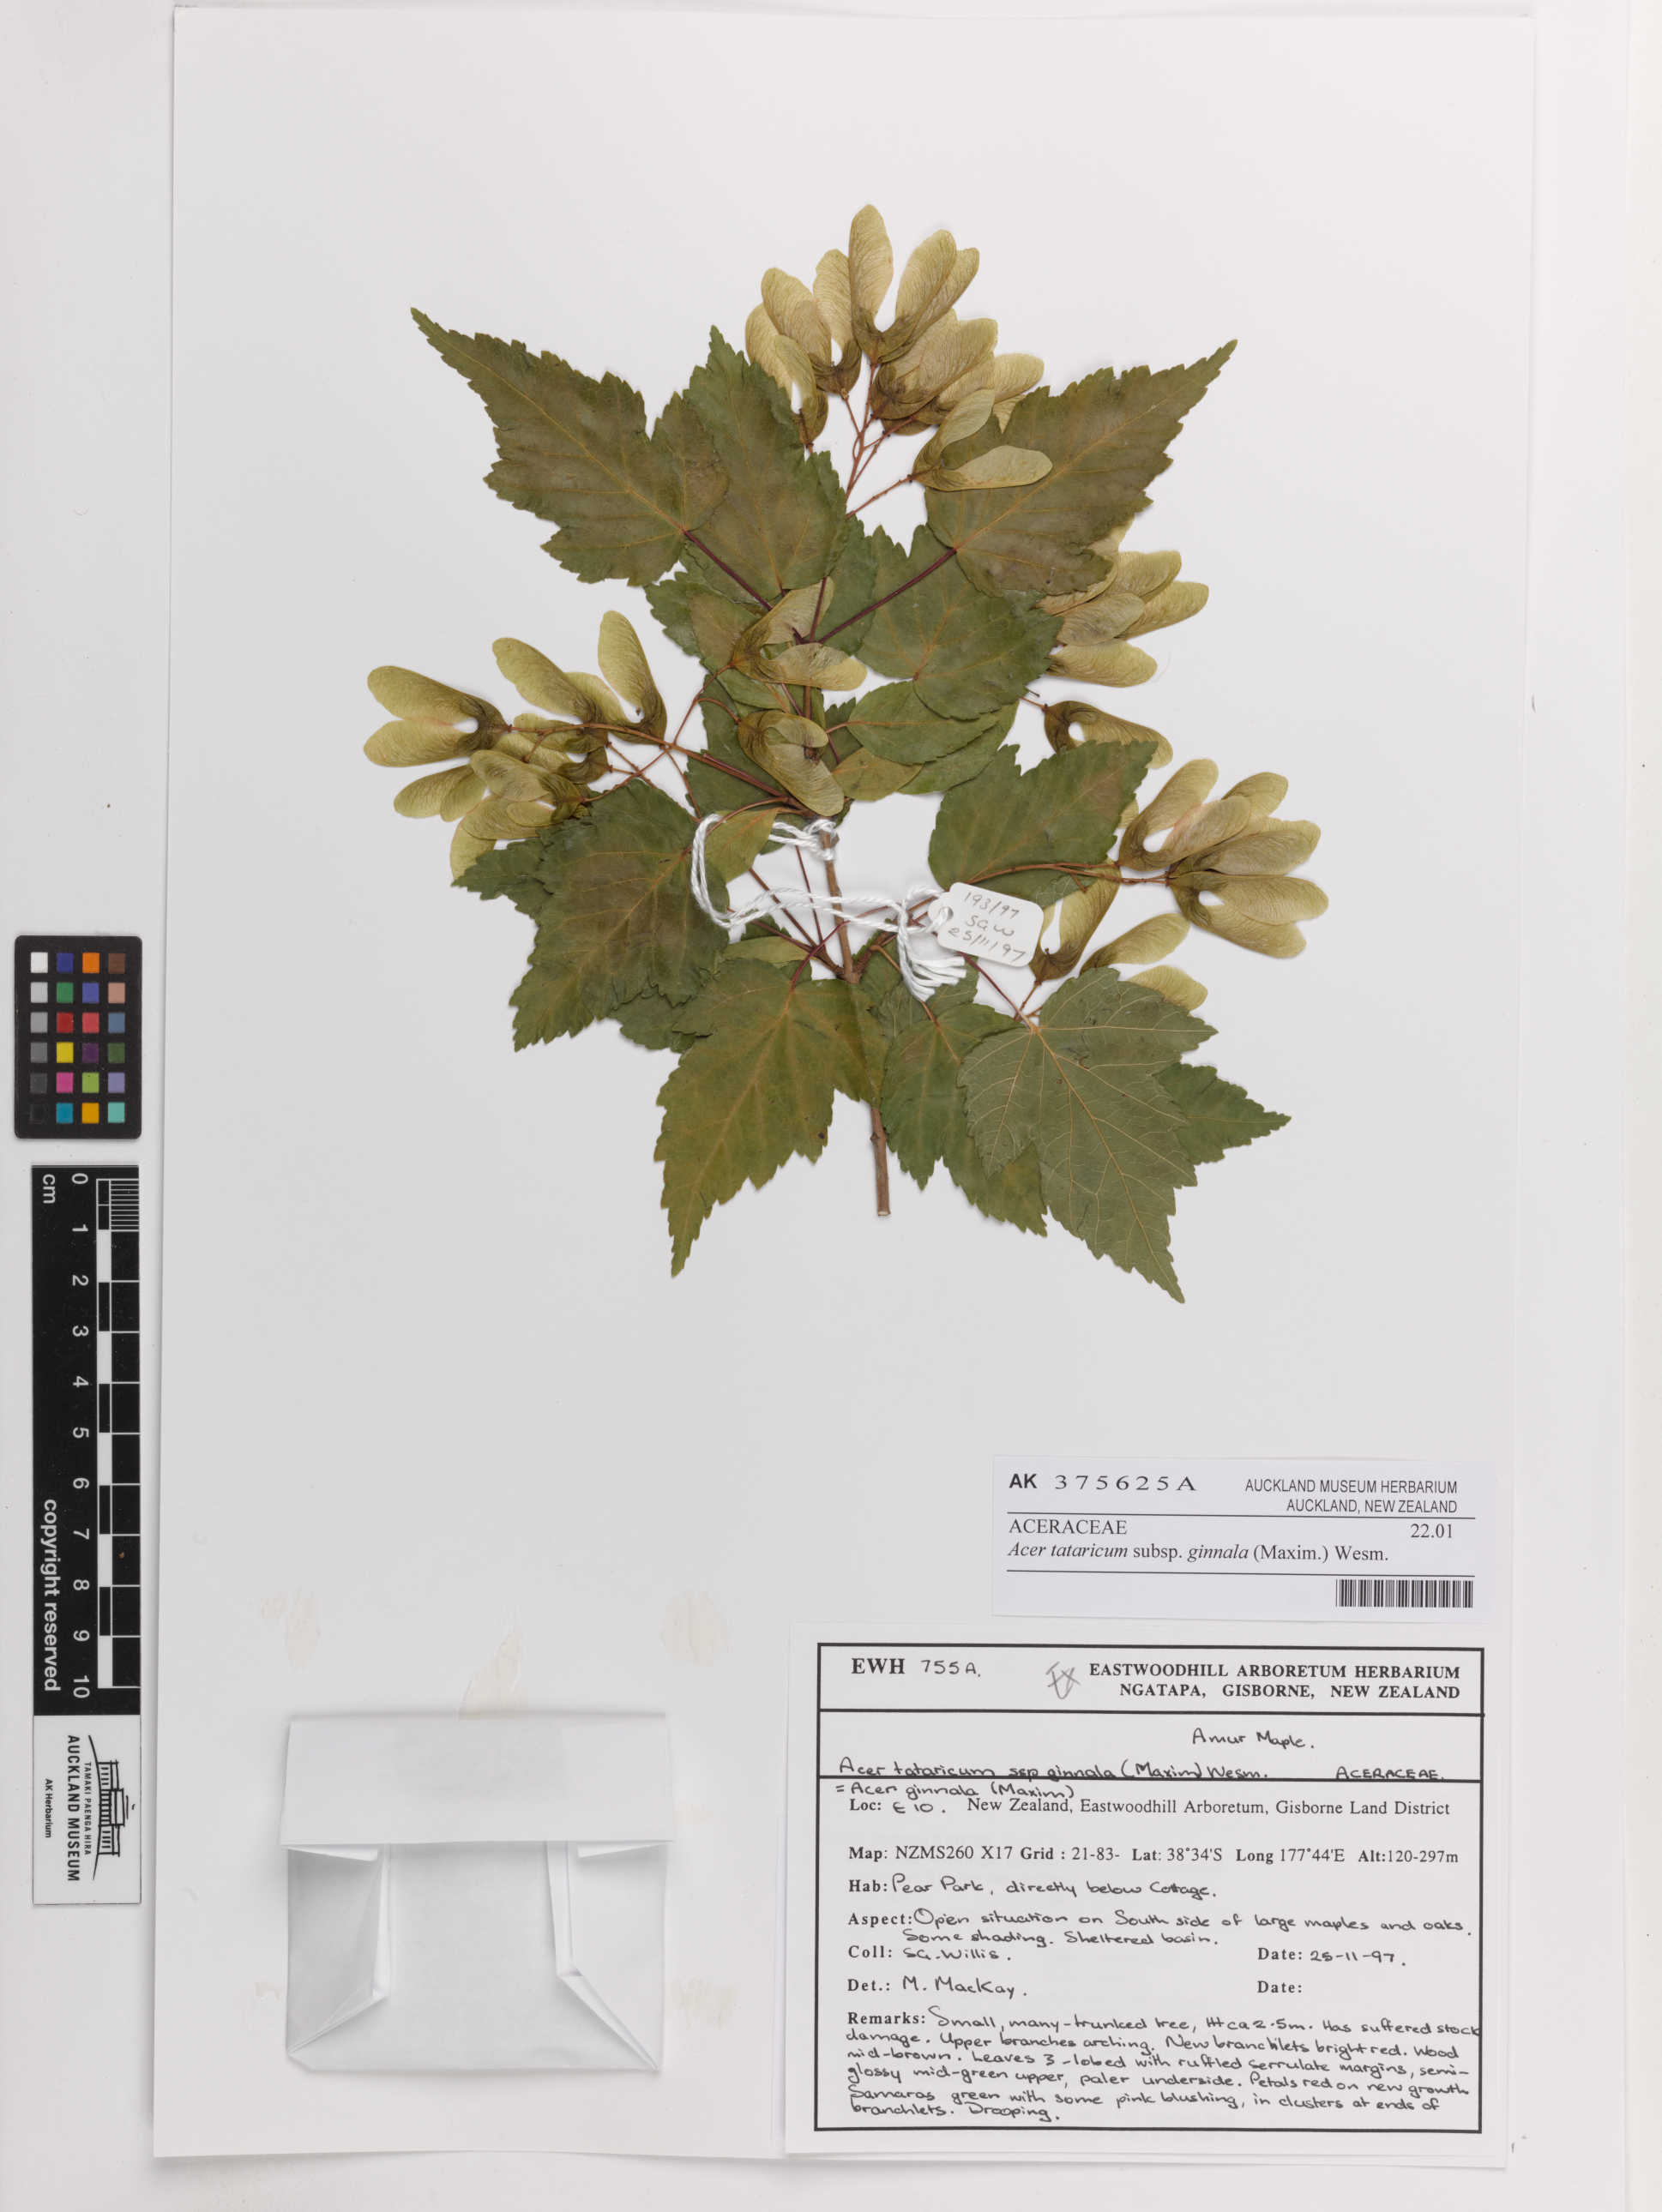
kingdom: Plantae
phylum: Tracheophyta
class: Magnoliopsida
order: Sapindales
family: Sapindaceae
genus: Acer
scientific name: Acer tataricum
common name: Tartar maple
